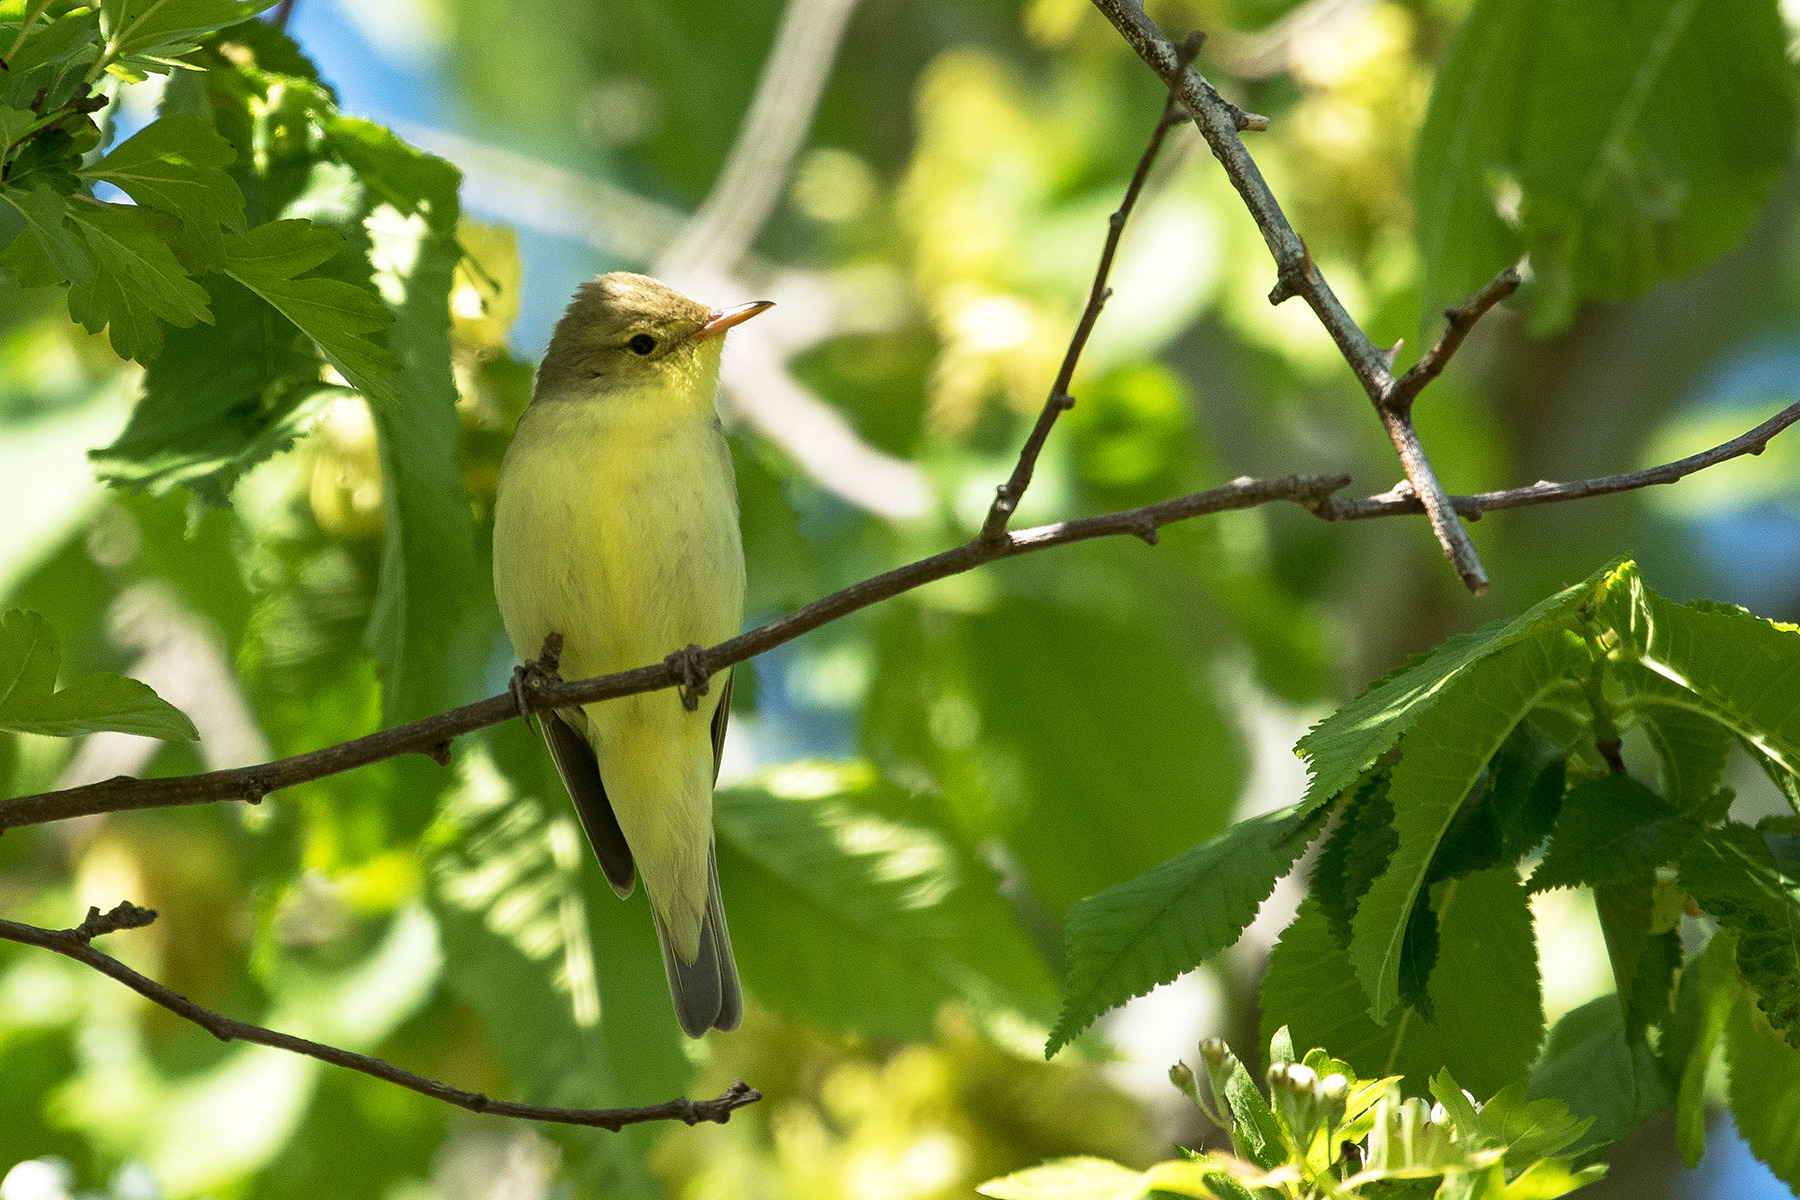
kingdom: Animalia
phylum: Chordata
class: Aves
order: Passeriformes
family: Acrocephalidae
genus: Hippolais
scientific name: Hippolais icterina
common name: Gulbug
